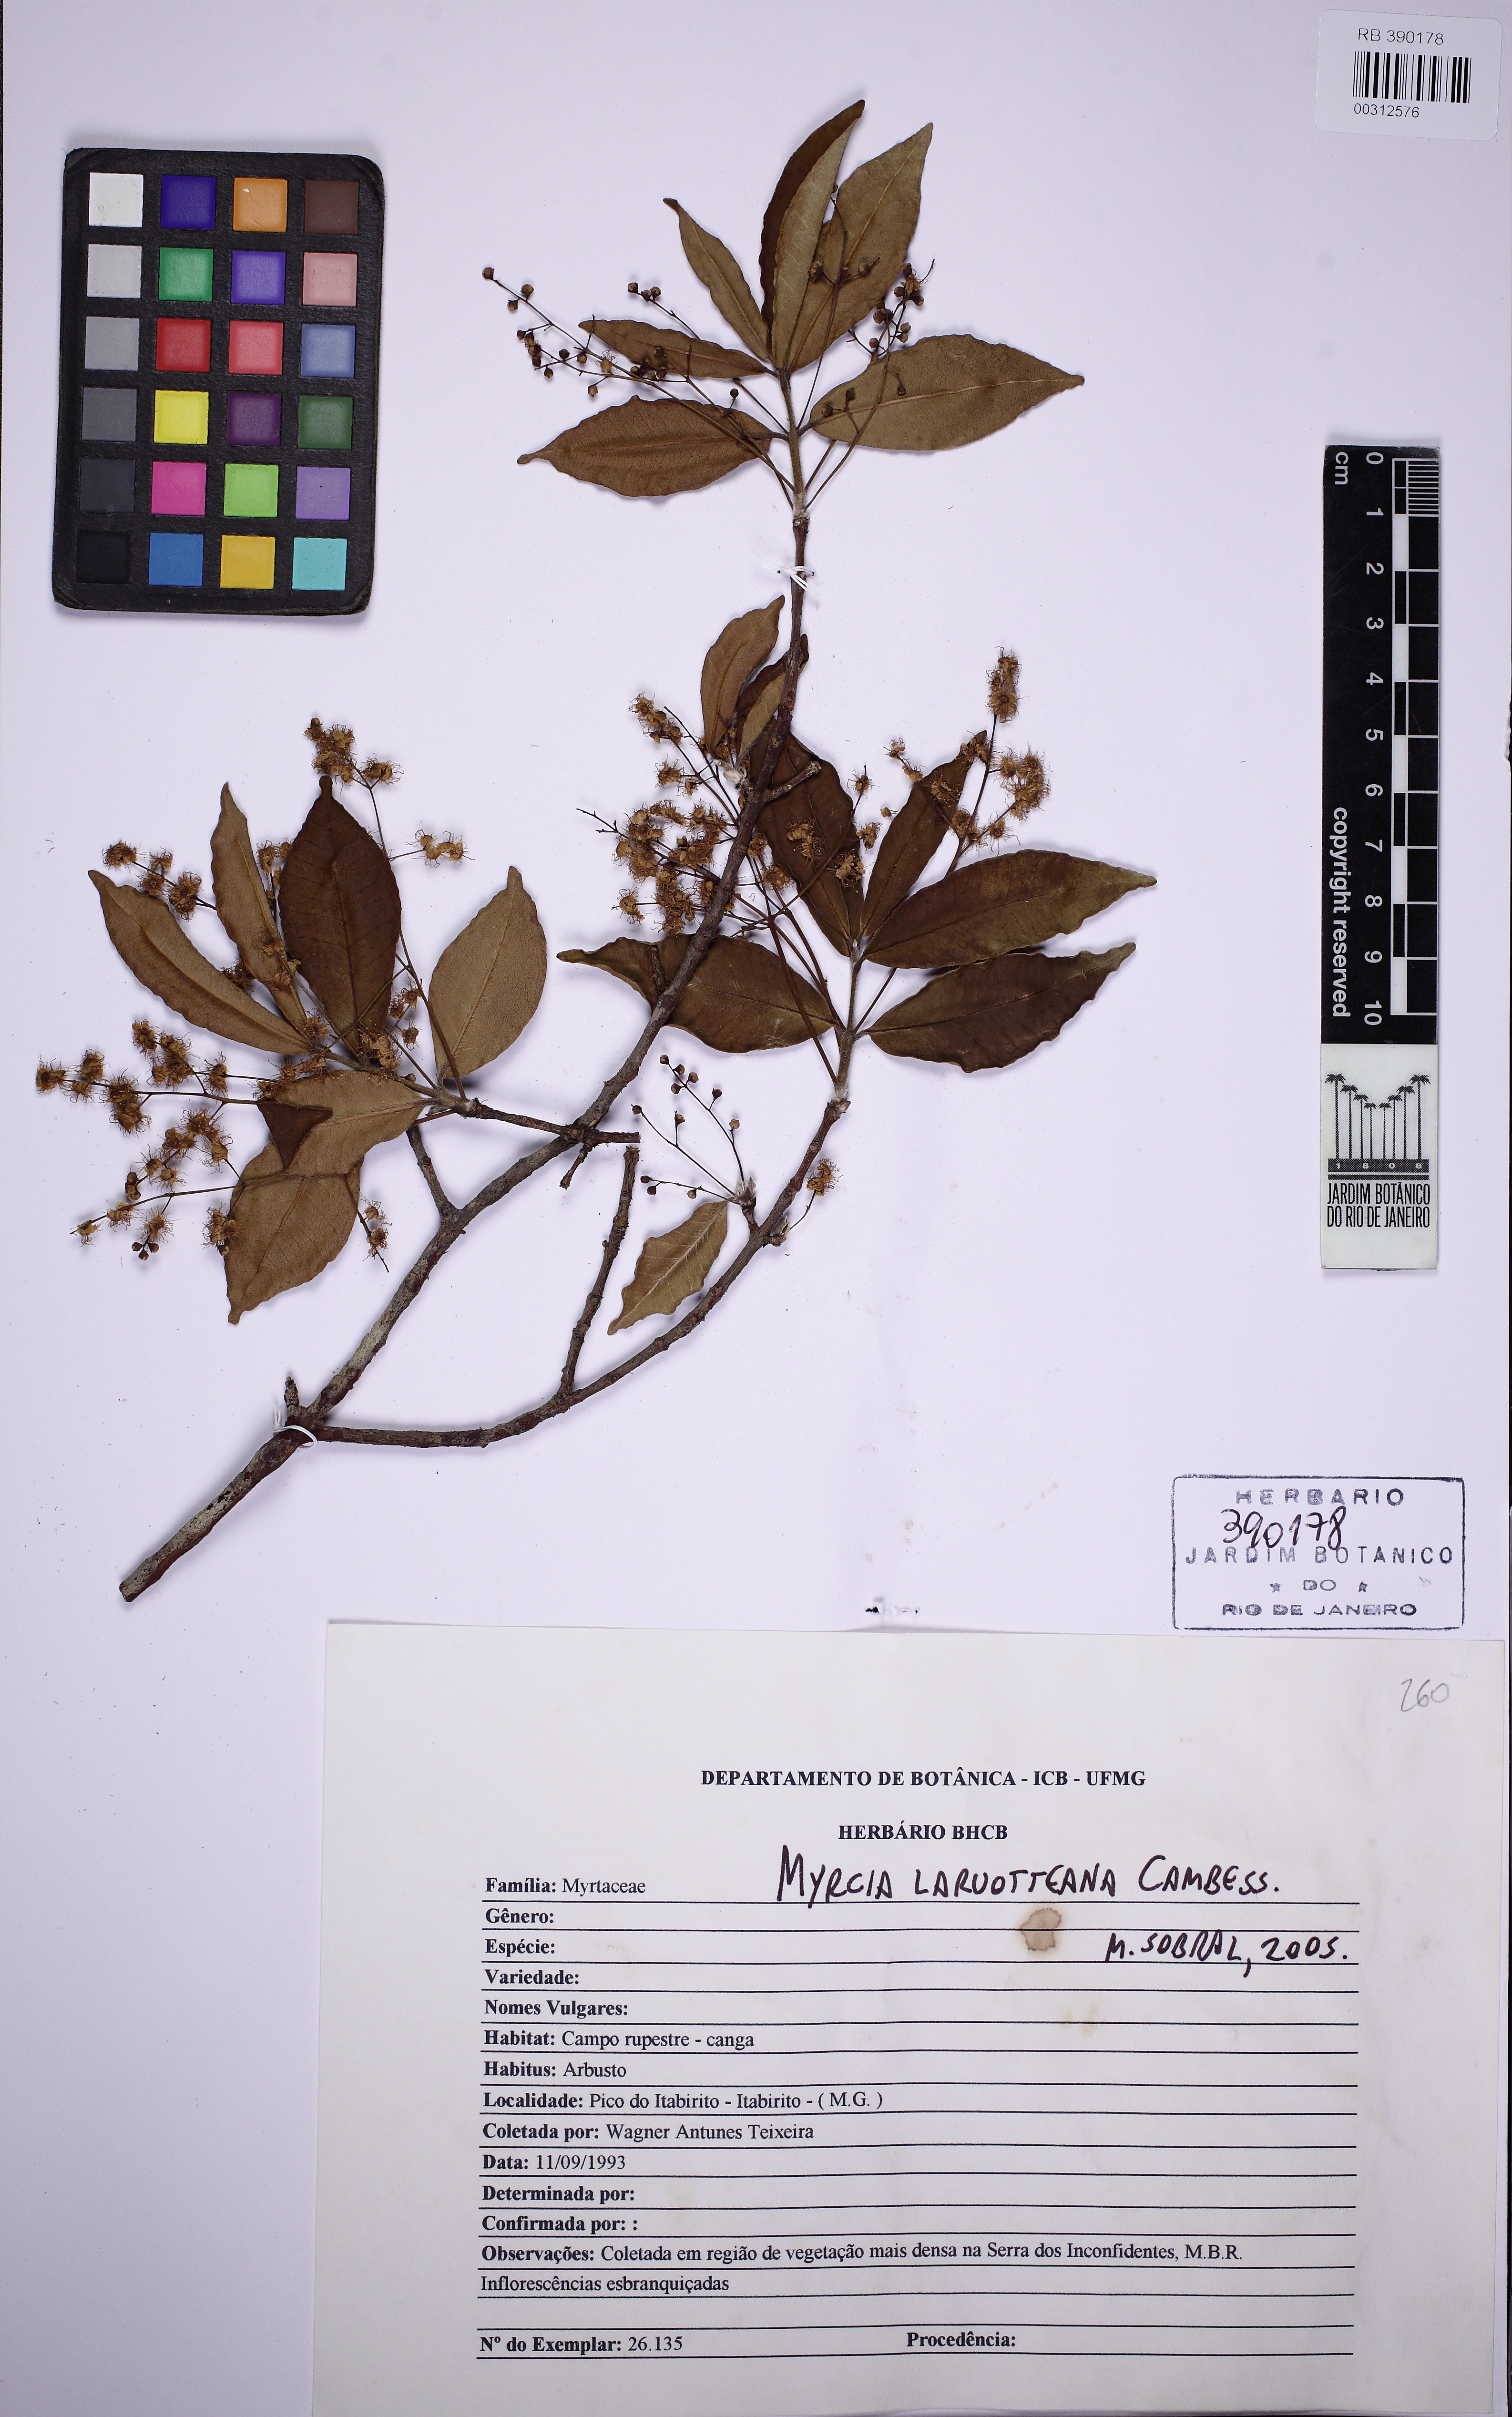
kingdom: Plantae
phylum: Tracheophyta
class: Magnoliopsida
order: Myrtales
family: Myrtaceae
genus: Myrcia
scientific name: Myrcia laruotteana
